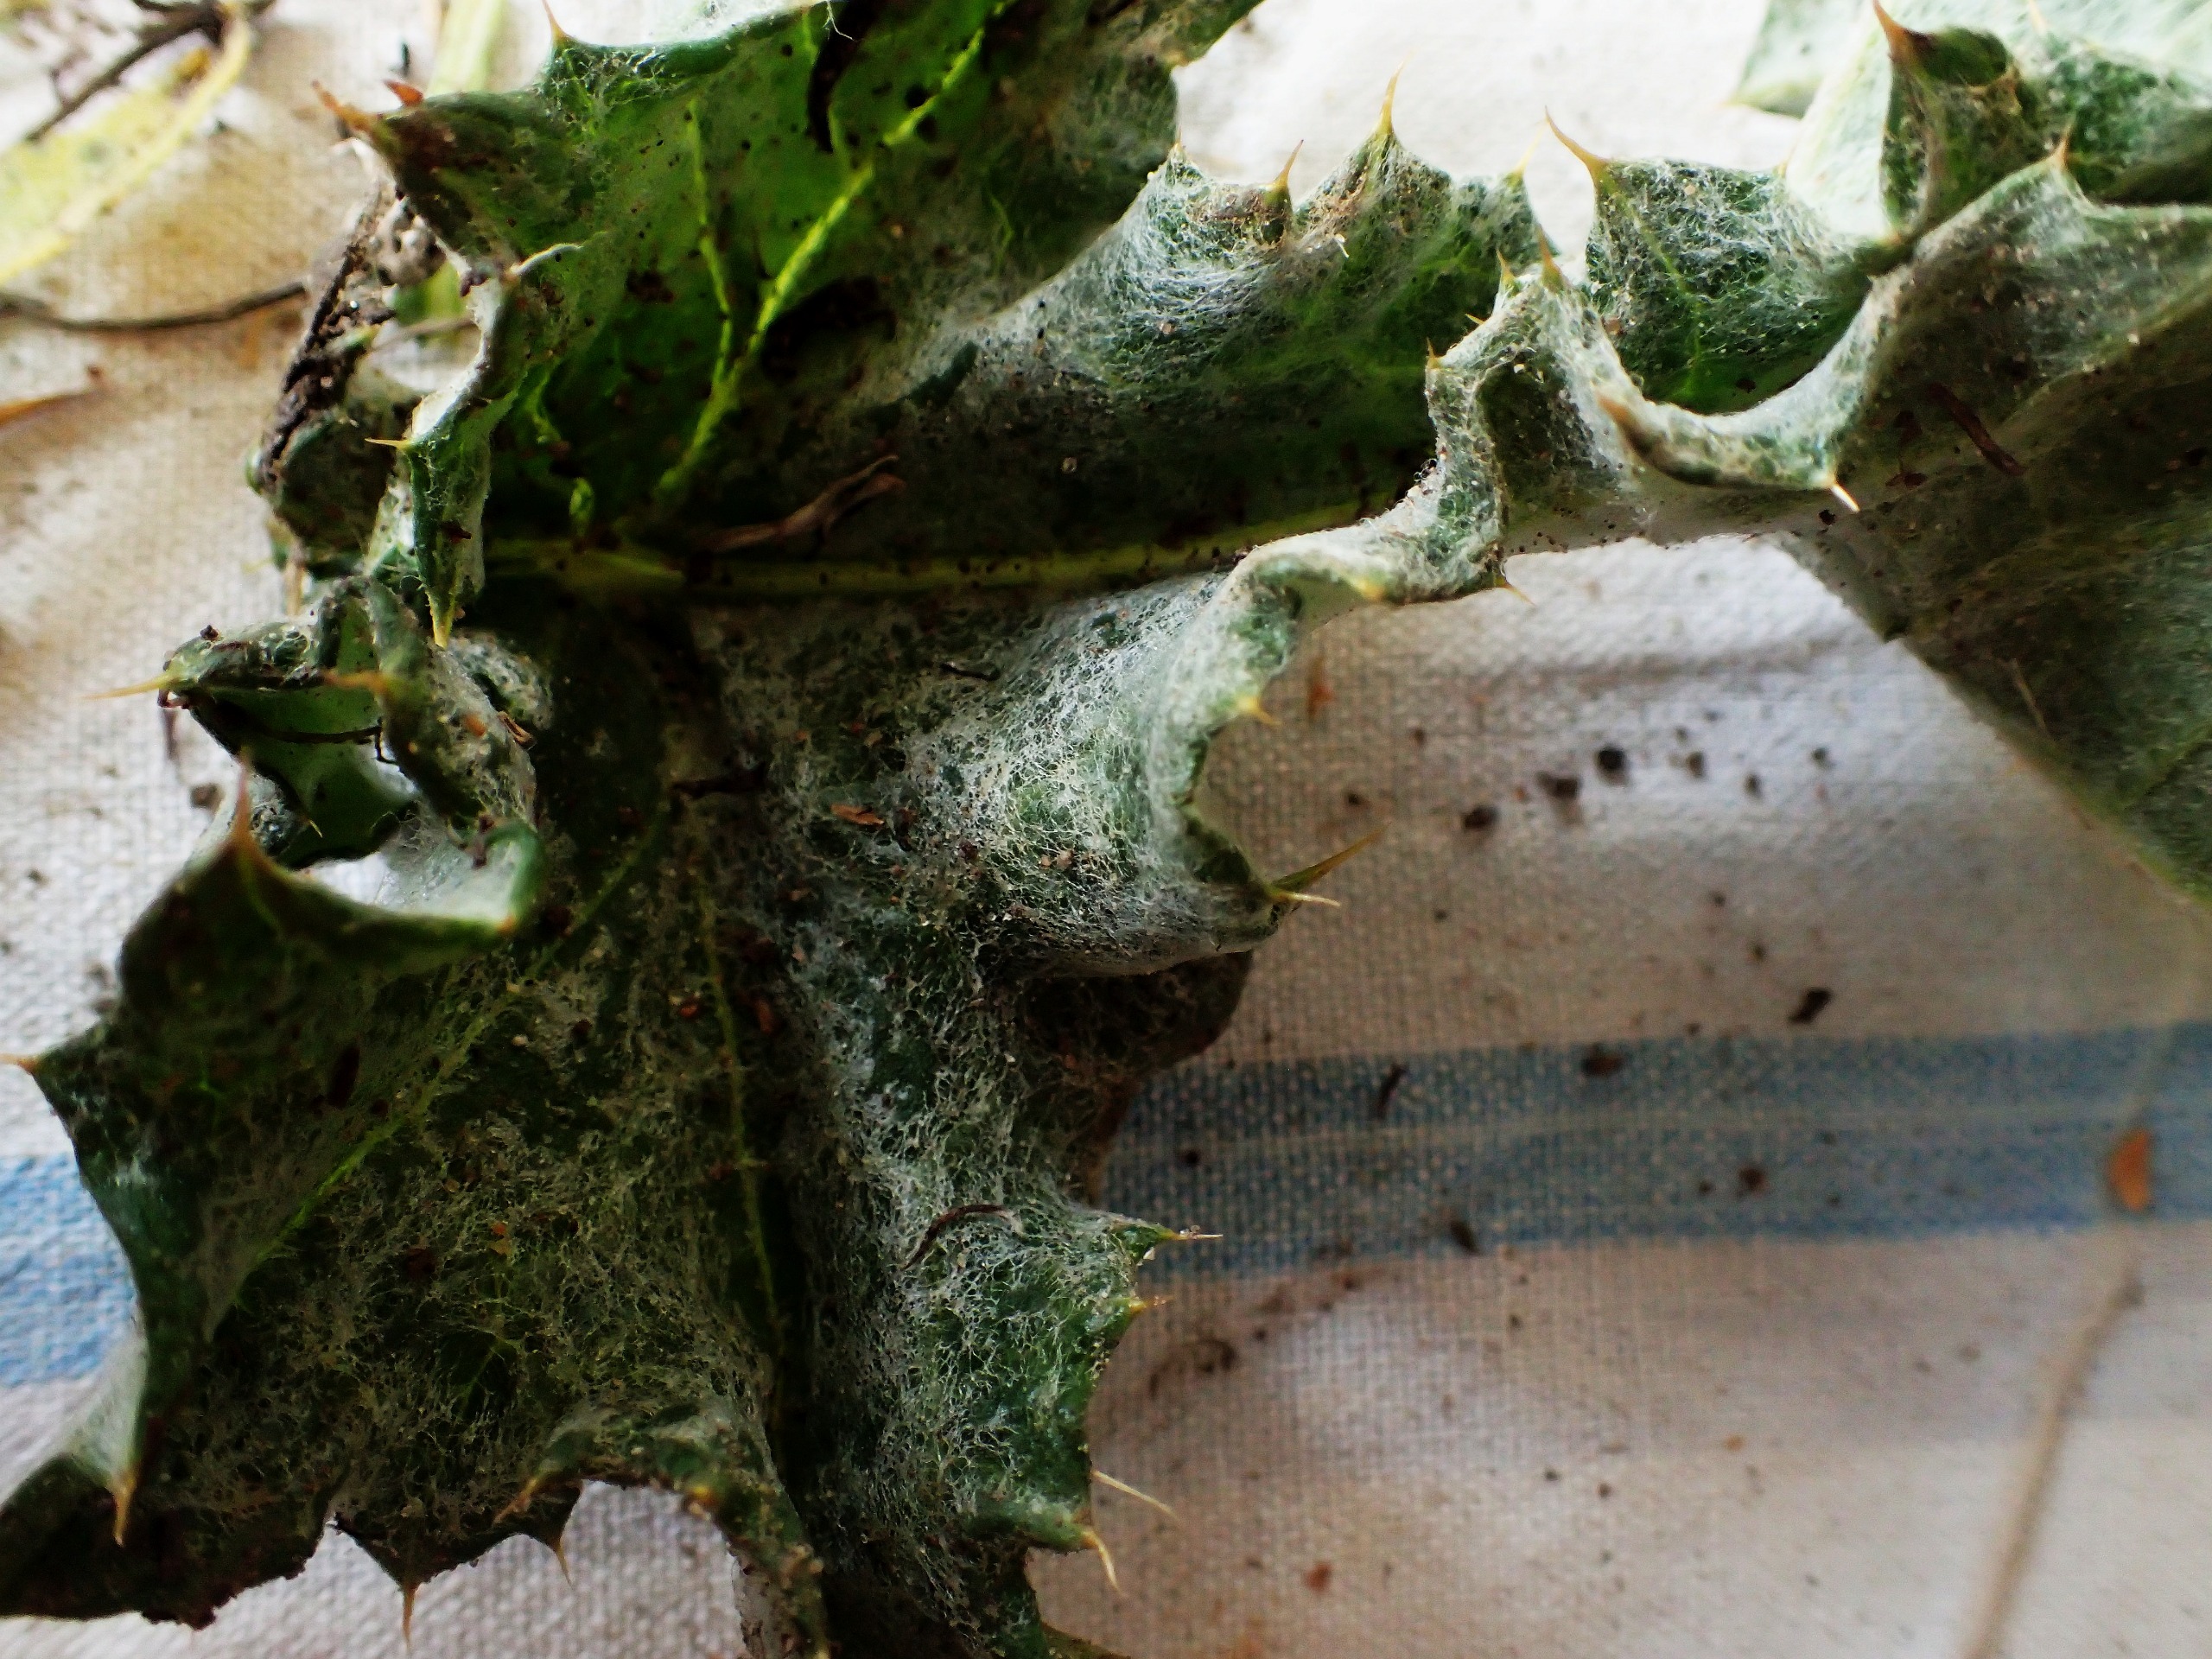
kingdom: Plantae
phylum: Tracheophyta
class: Magnoliopsida
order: Asterales
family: Asteraceae
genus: Onopordum
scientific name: Onopordum acanthium
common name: Æselfoder
